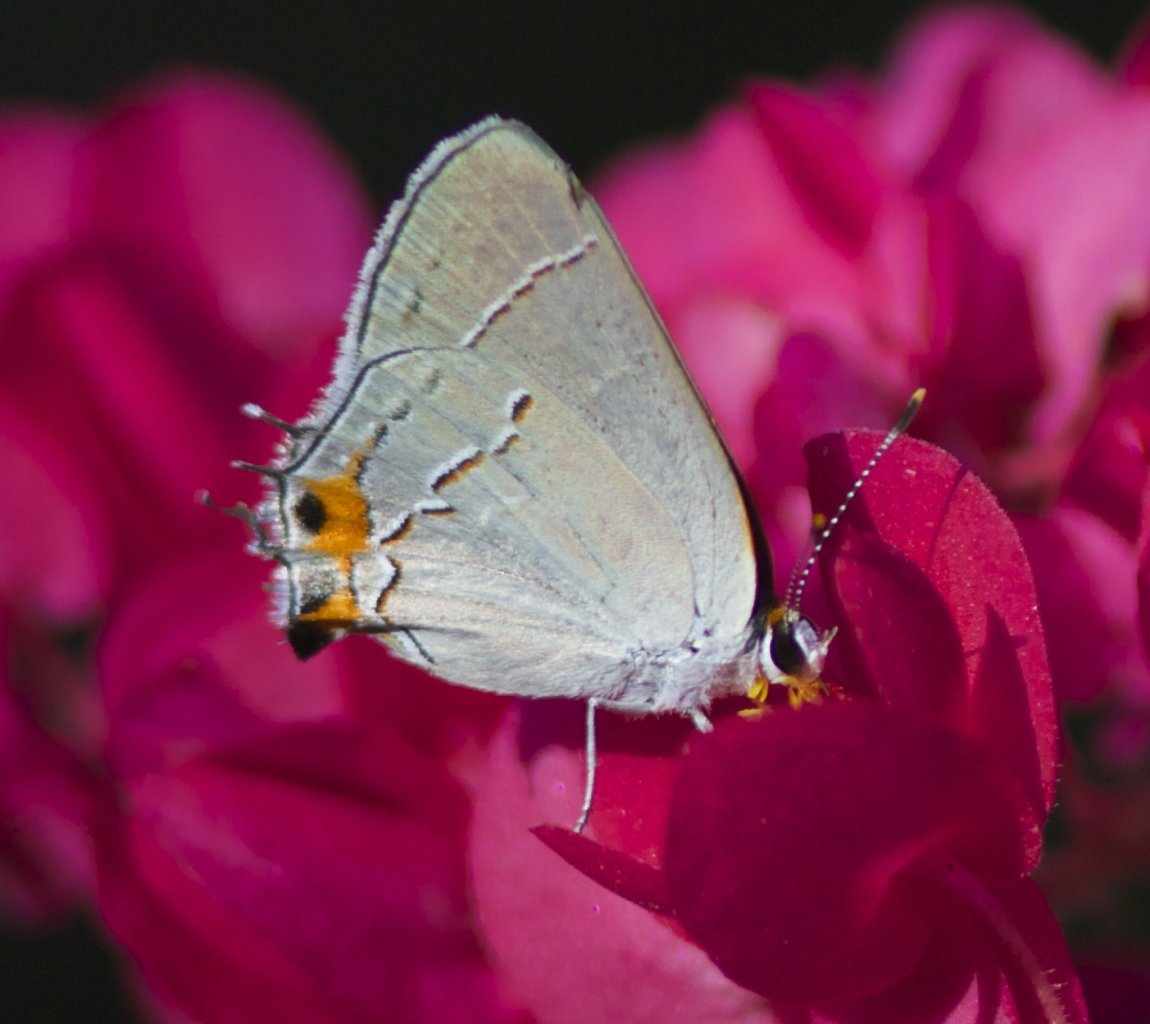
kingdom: Animalia
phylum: Arthropoda
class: Insecta
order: Lepidoptera
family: Lycaenidae
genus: Strymon
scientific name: Strymon melinus
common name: Gray Hairstreak
